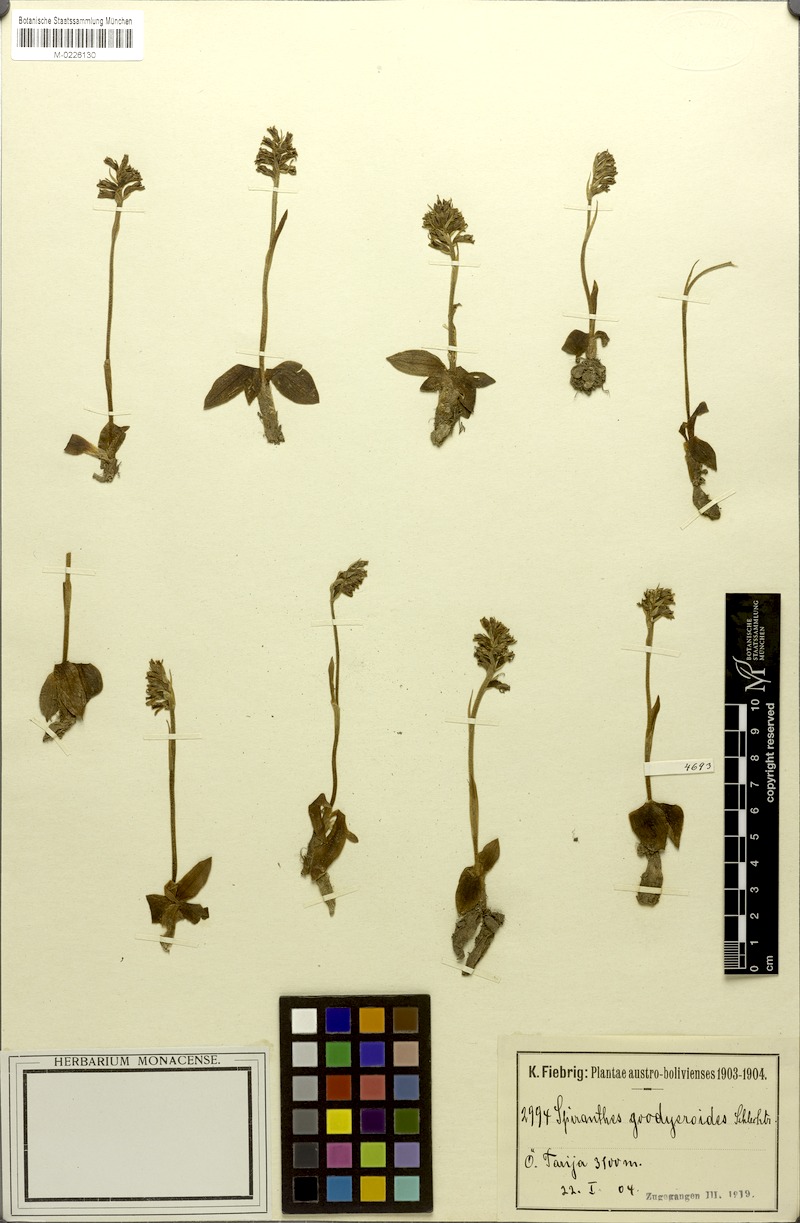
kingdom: Plantae
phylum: Tracheophyta
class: Liliopsida
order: Asparagales
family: Orchidaceae
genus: Cyclopogon
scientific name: Cyclopogon goodyeroides
